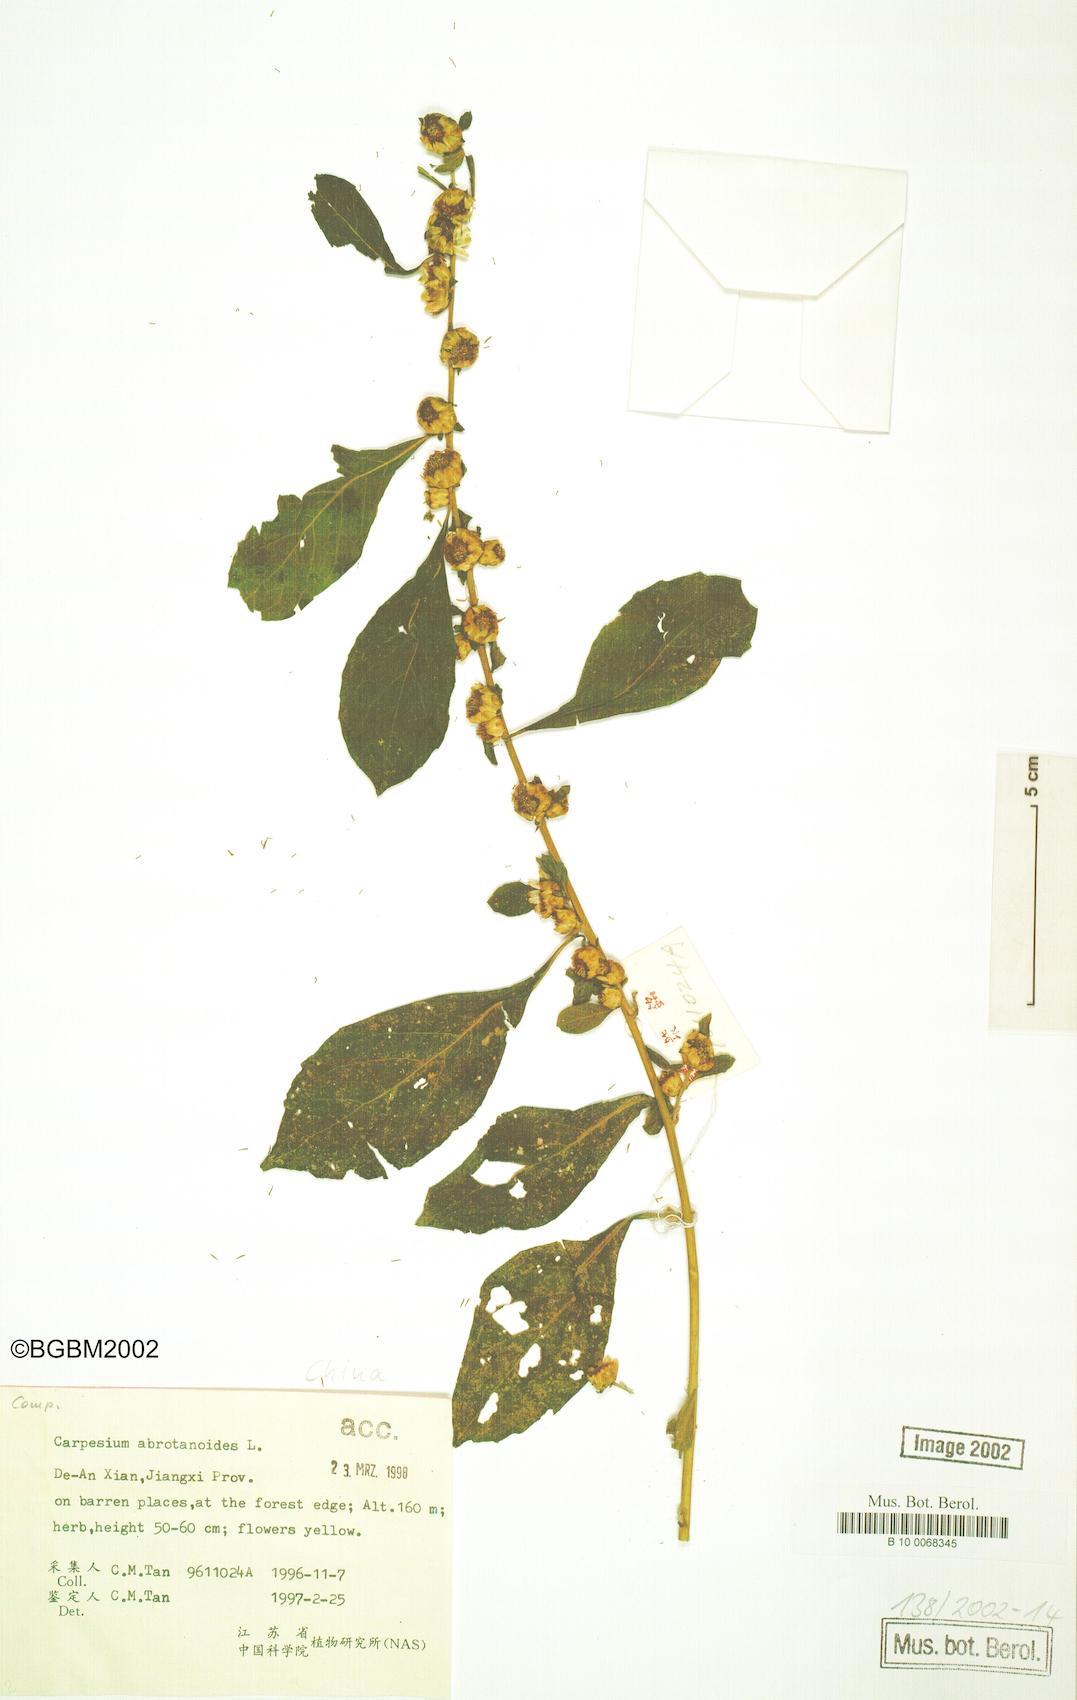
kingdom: Plantae
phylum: Tracheophyta
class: Magnoliopsida
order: Asterales
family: Asteraceae
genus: Carpesium
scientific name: Carpesium abrotanoides
